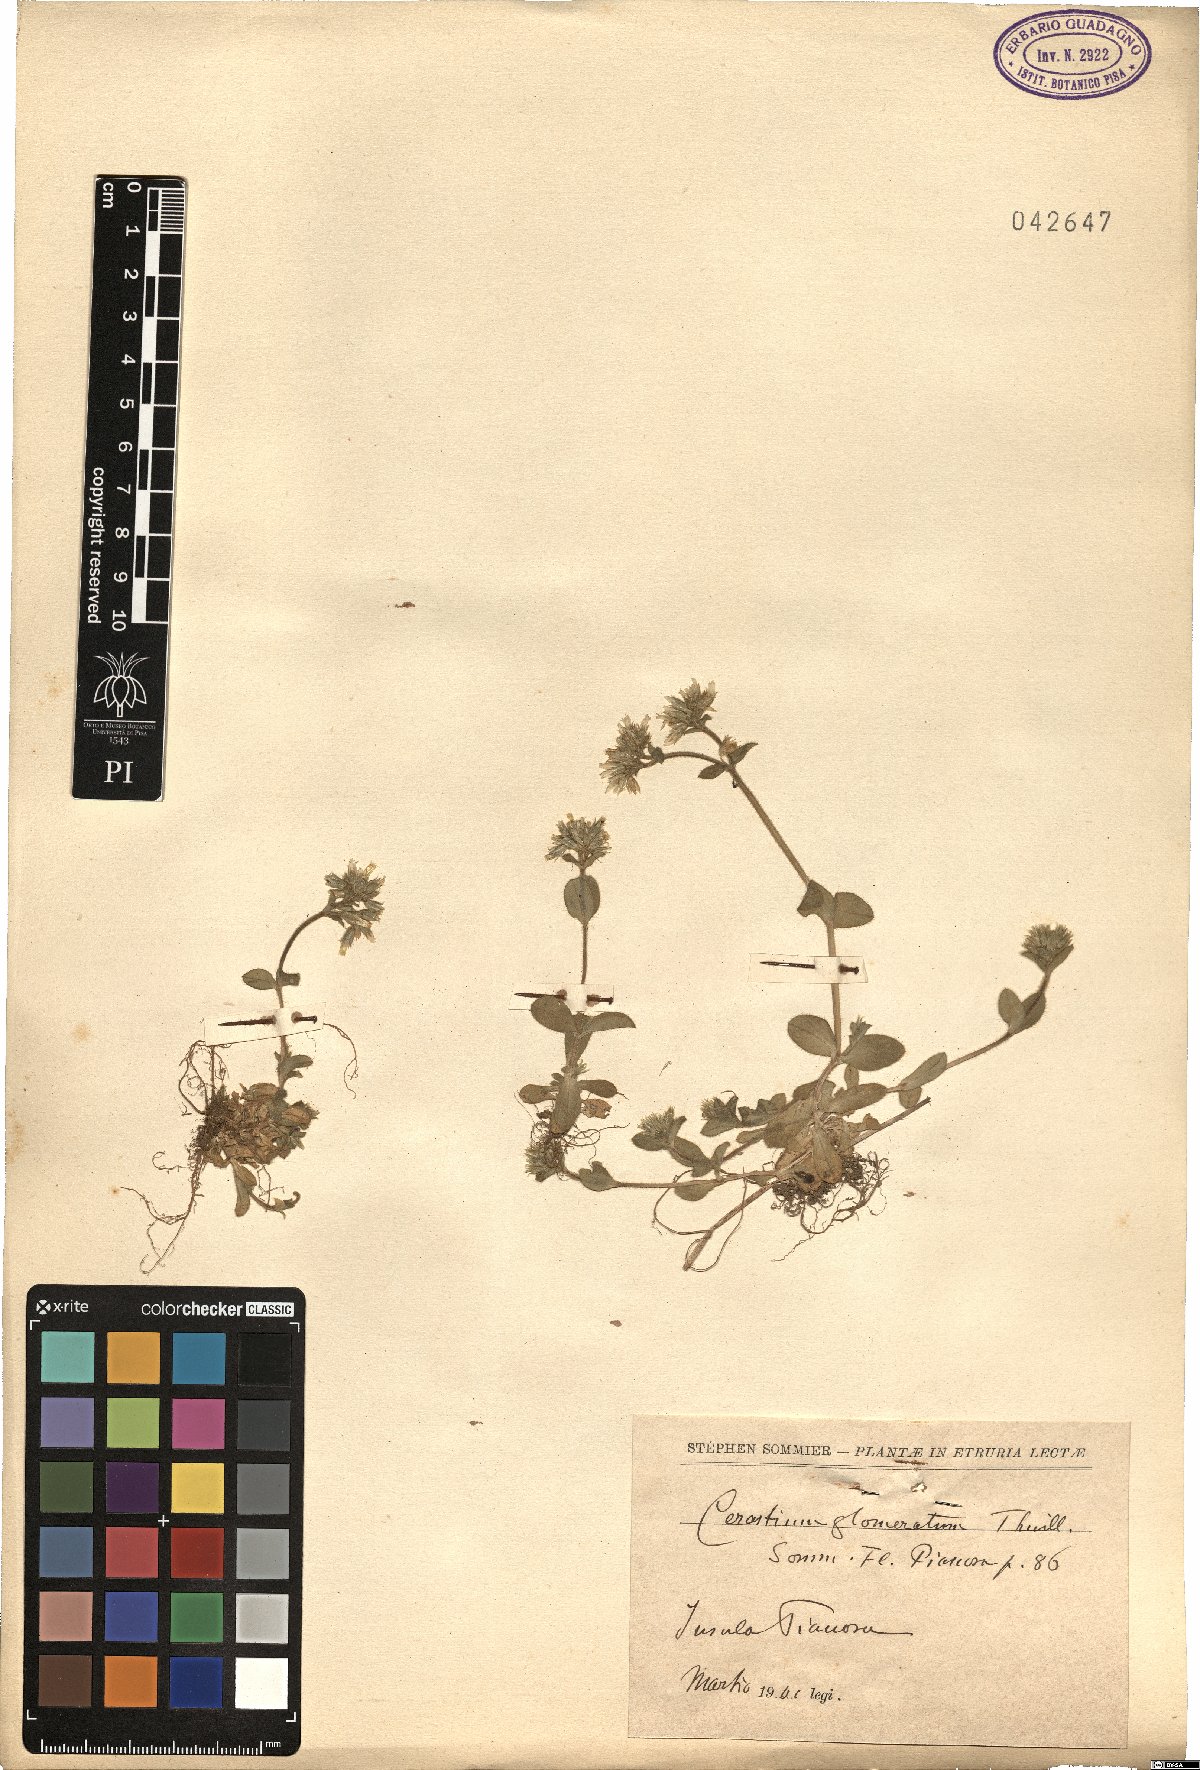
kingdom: Plantae
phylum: Tracheophyta
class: Magnoliopsida
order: Caryophyllales
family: Caryophyllaceae
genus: Cerastium
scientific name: Cerastium glomeratum
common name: Sticky chickweed
